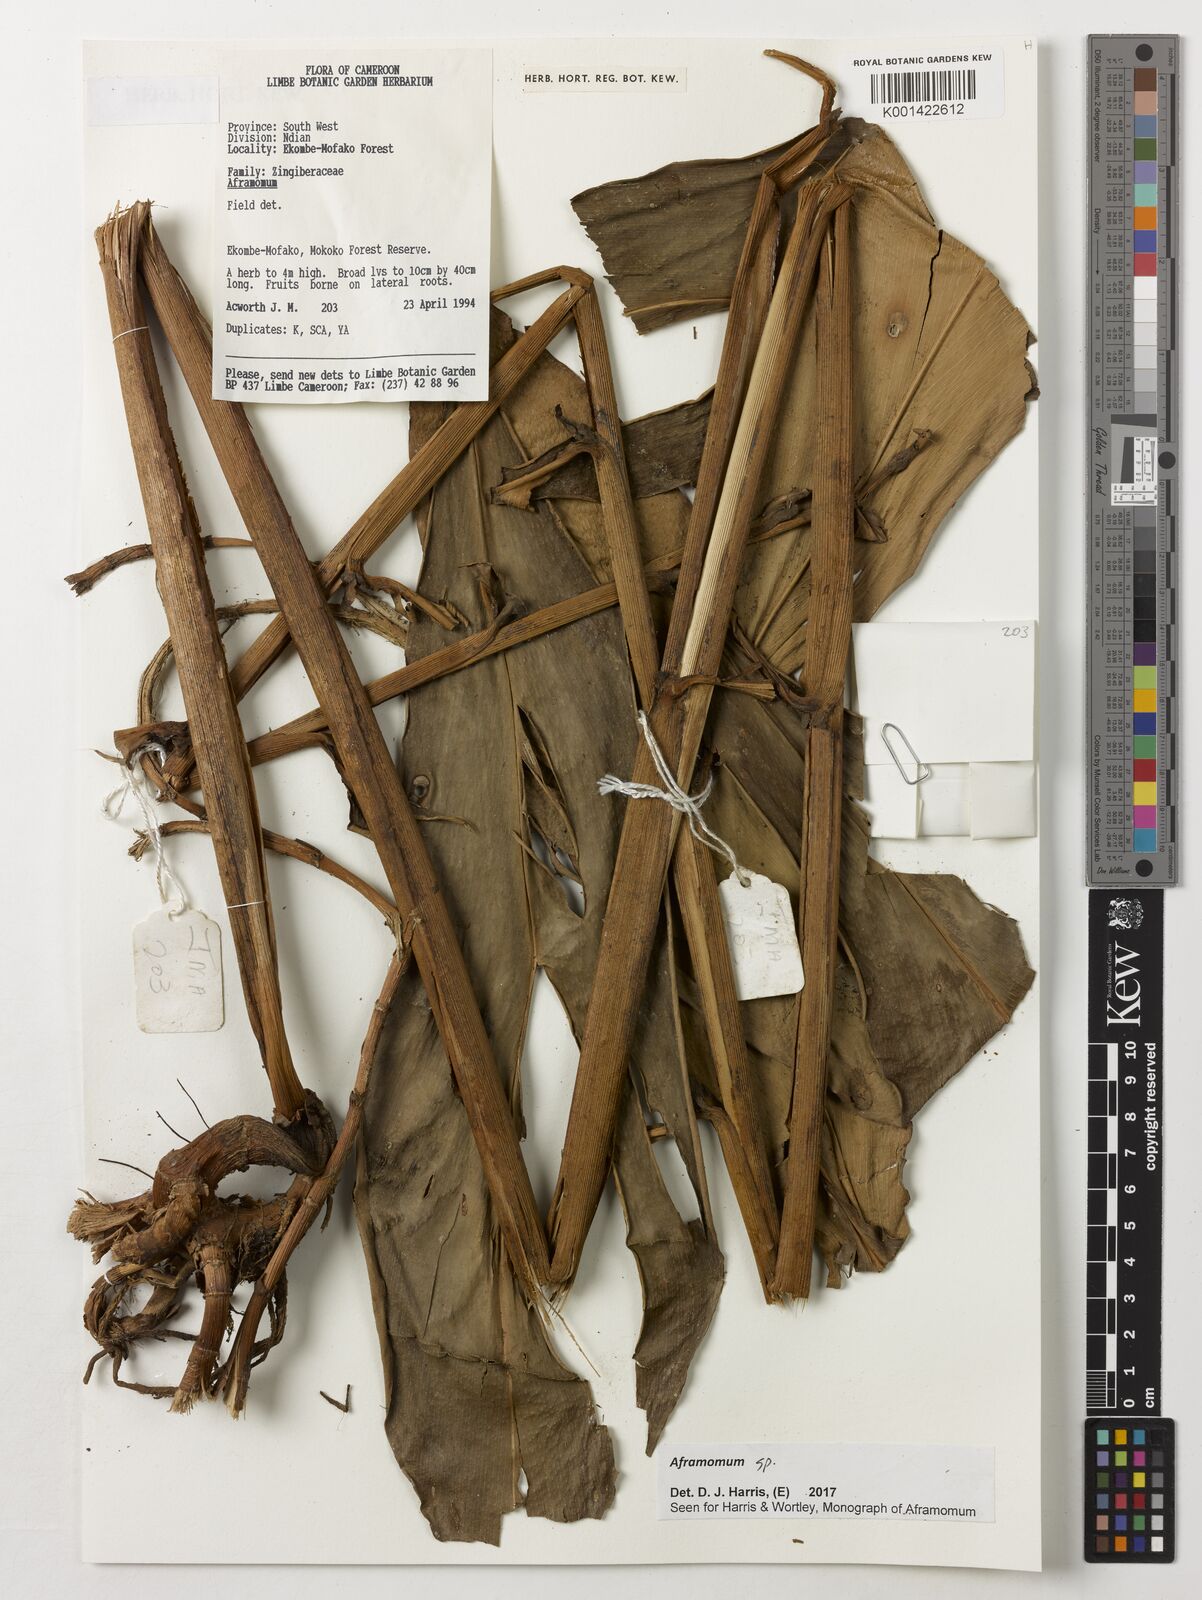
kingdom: Plantae
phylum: Tracheophyta
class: Liliopsida
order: Zingiberales
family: Zingiberaceae
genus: Aframomum
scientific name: Aframomum
